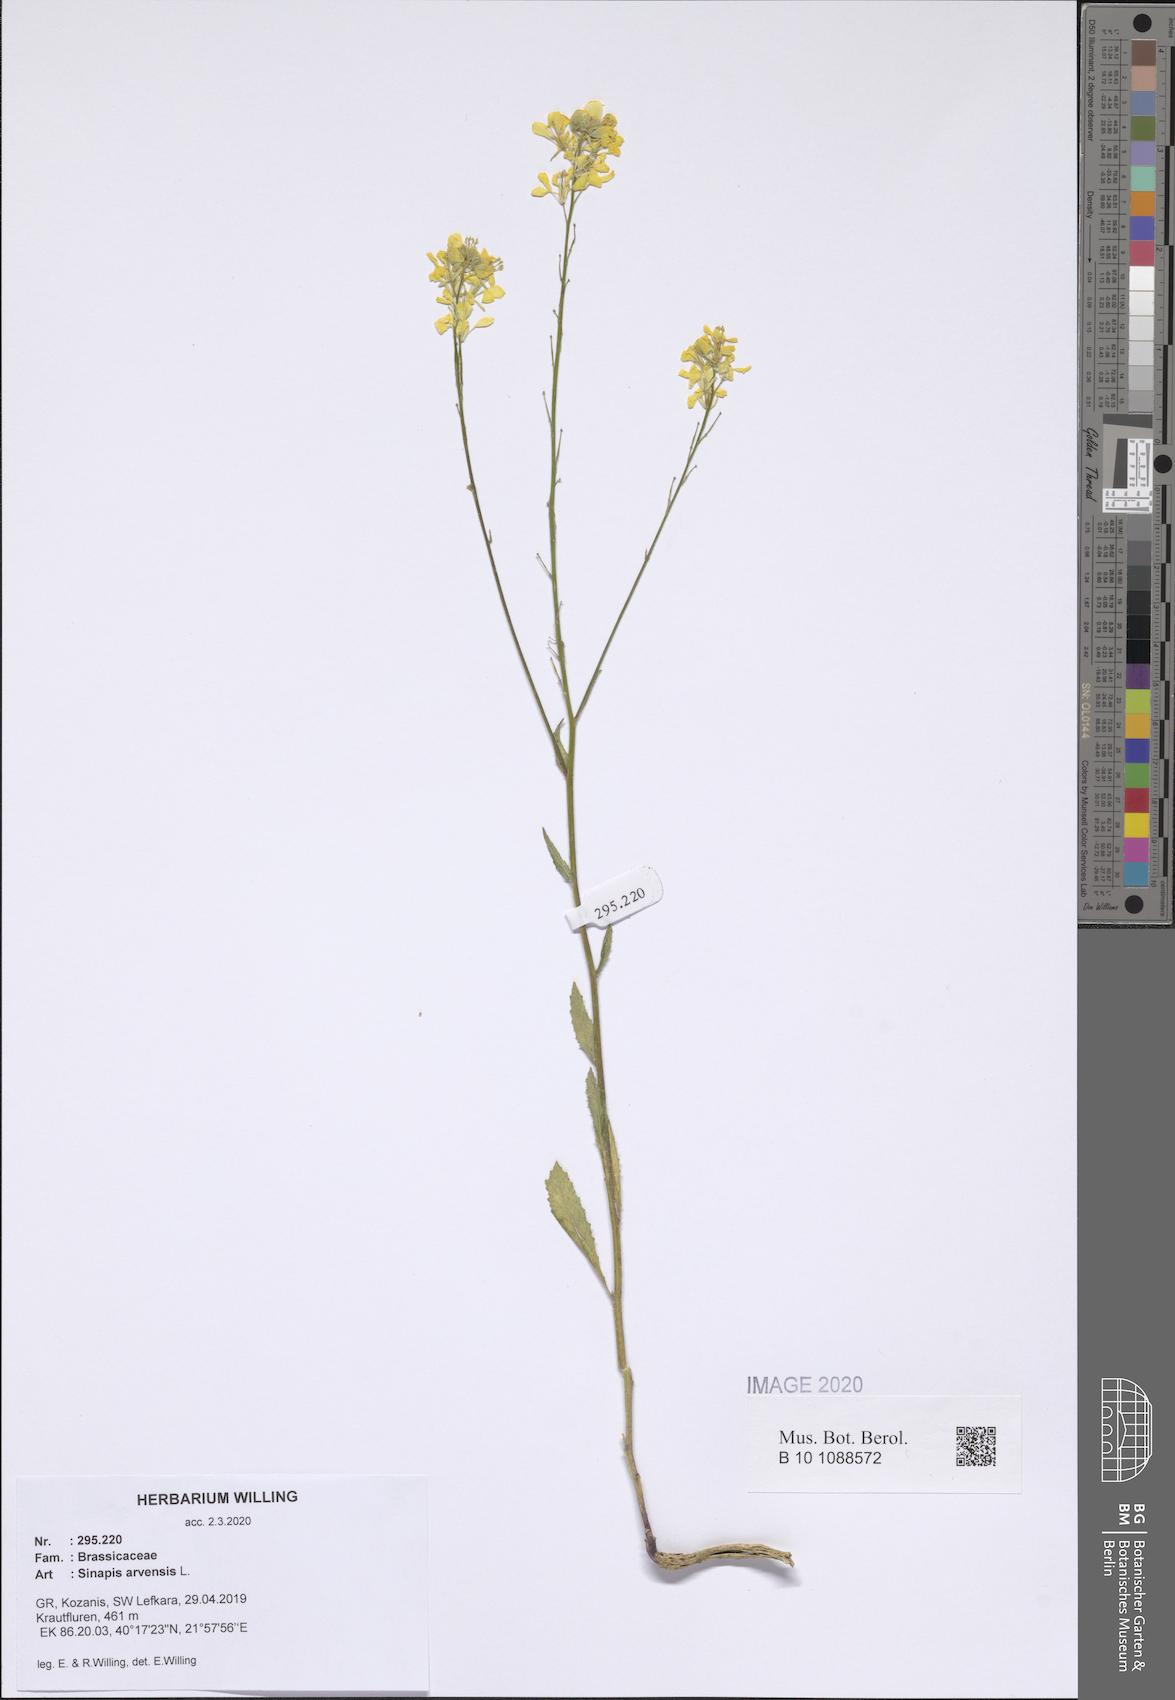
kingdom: Plantae
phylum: Tracheophyta
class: Magnoliopsida
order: Brassicales
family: Brassicaceae
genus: Sinapis
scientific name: Sinapis arvensis
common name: Charlock
